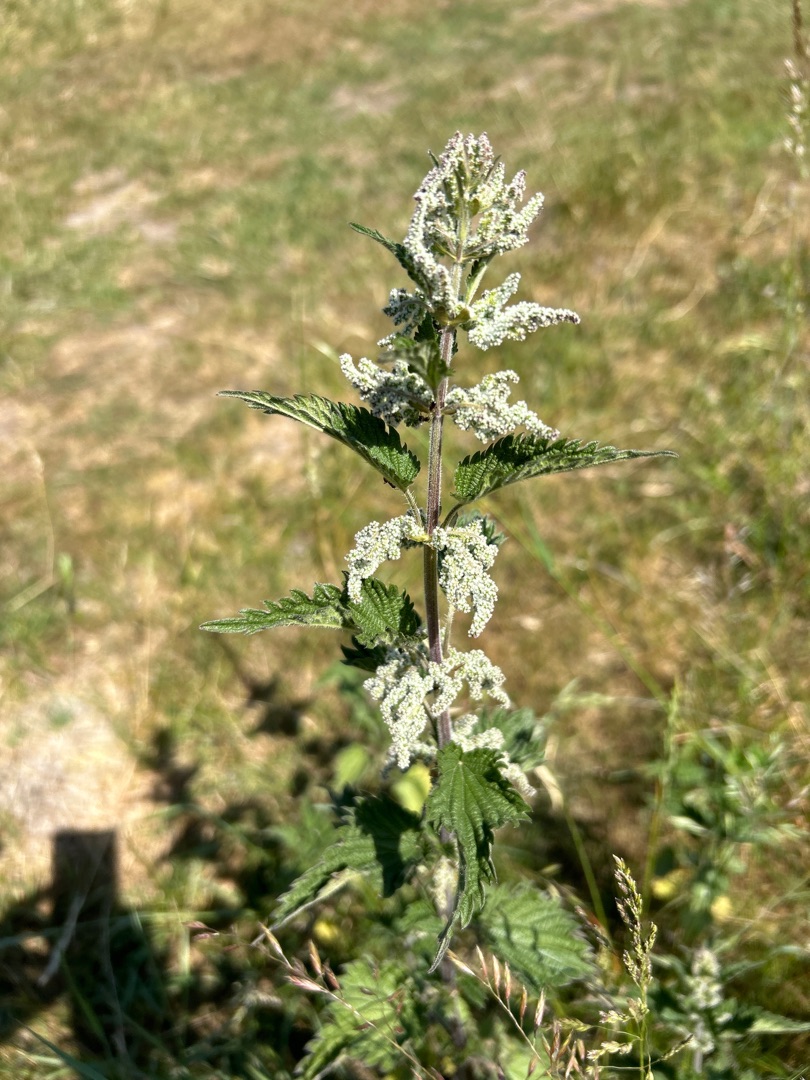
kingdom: Plantae
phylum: Tracheophyta
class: Magnoliopsida
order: Rosales
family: Urticaceae
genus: Urtica
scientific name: Urtica dioica
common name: Stor nælde
